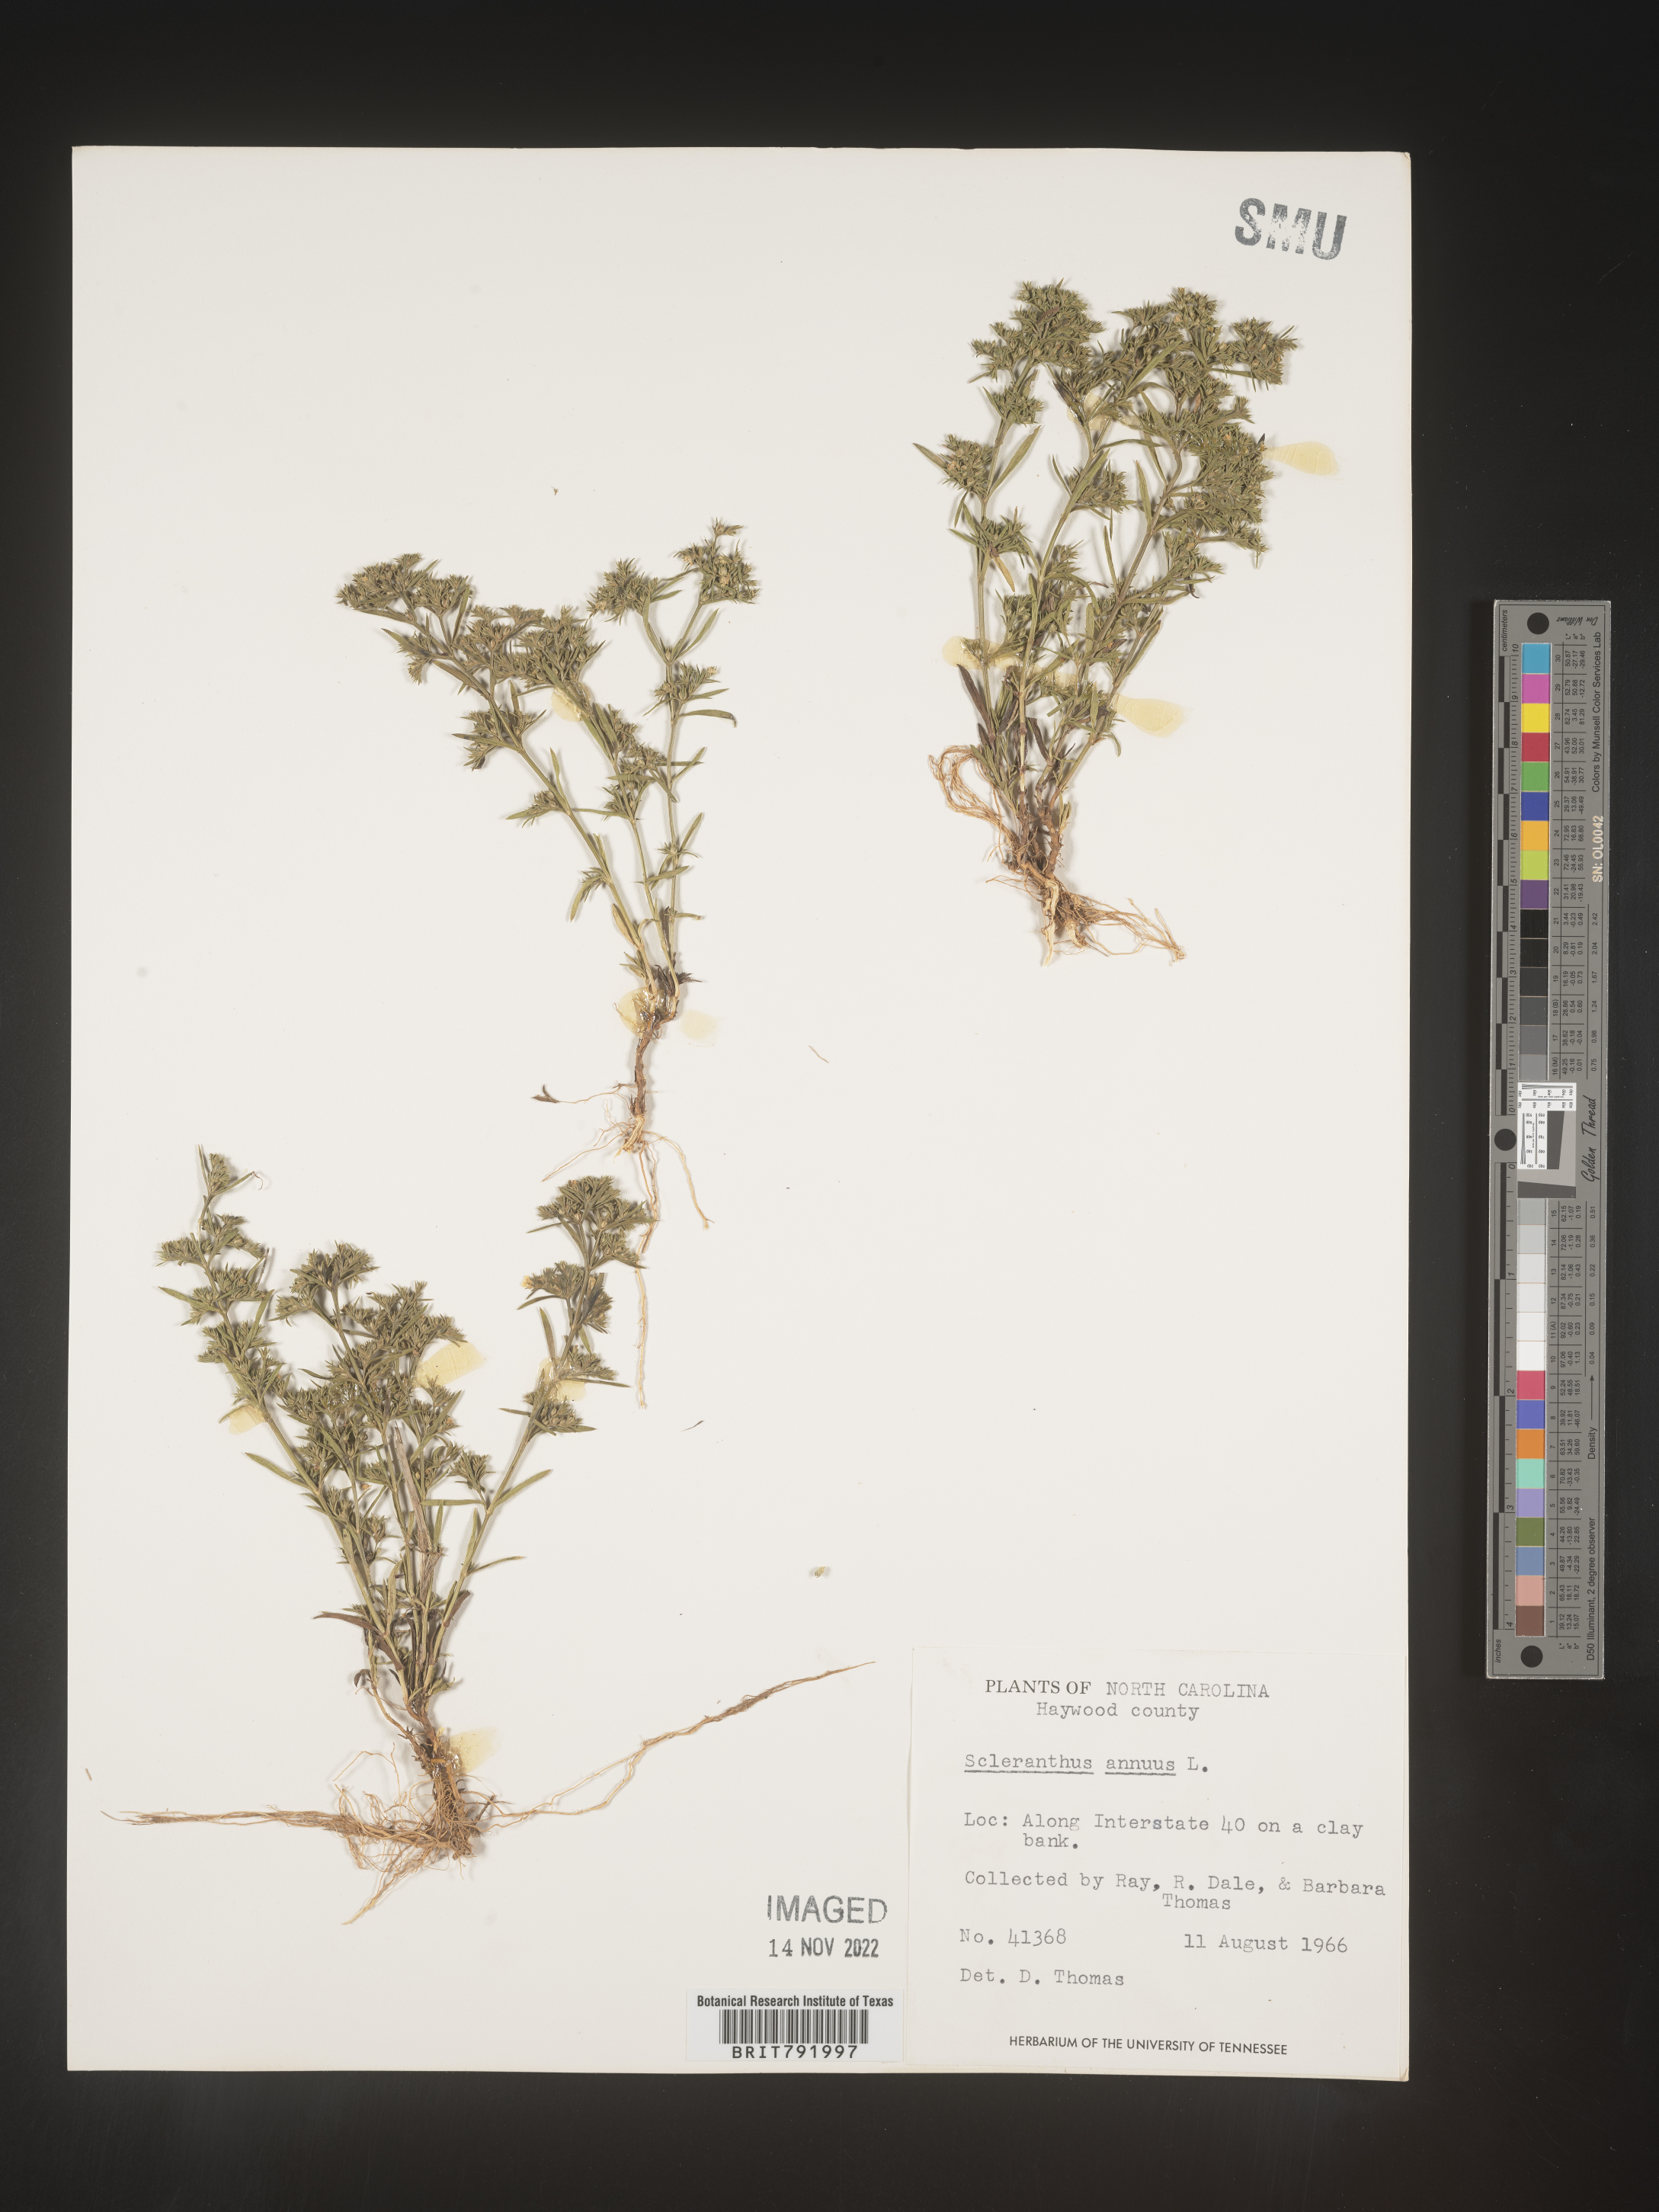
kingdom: Plantae
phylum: Tracheophyta
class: Magnoliopsida
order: Caryophyllales
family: Caryophyllaceae
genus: Scleranthus
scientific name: Scleranthus
